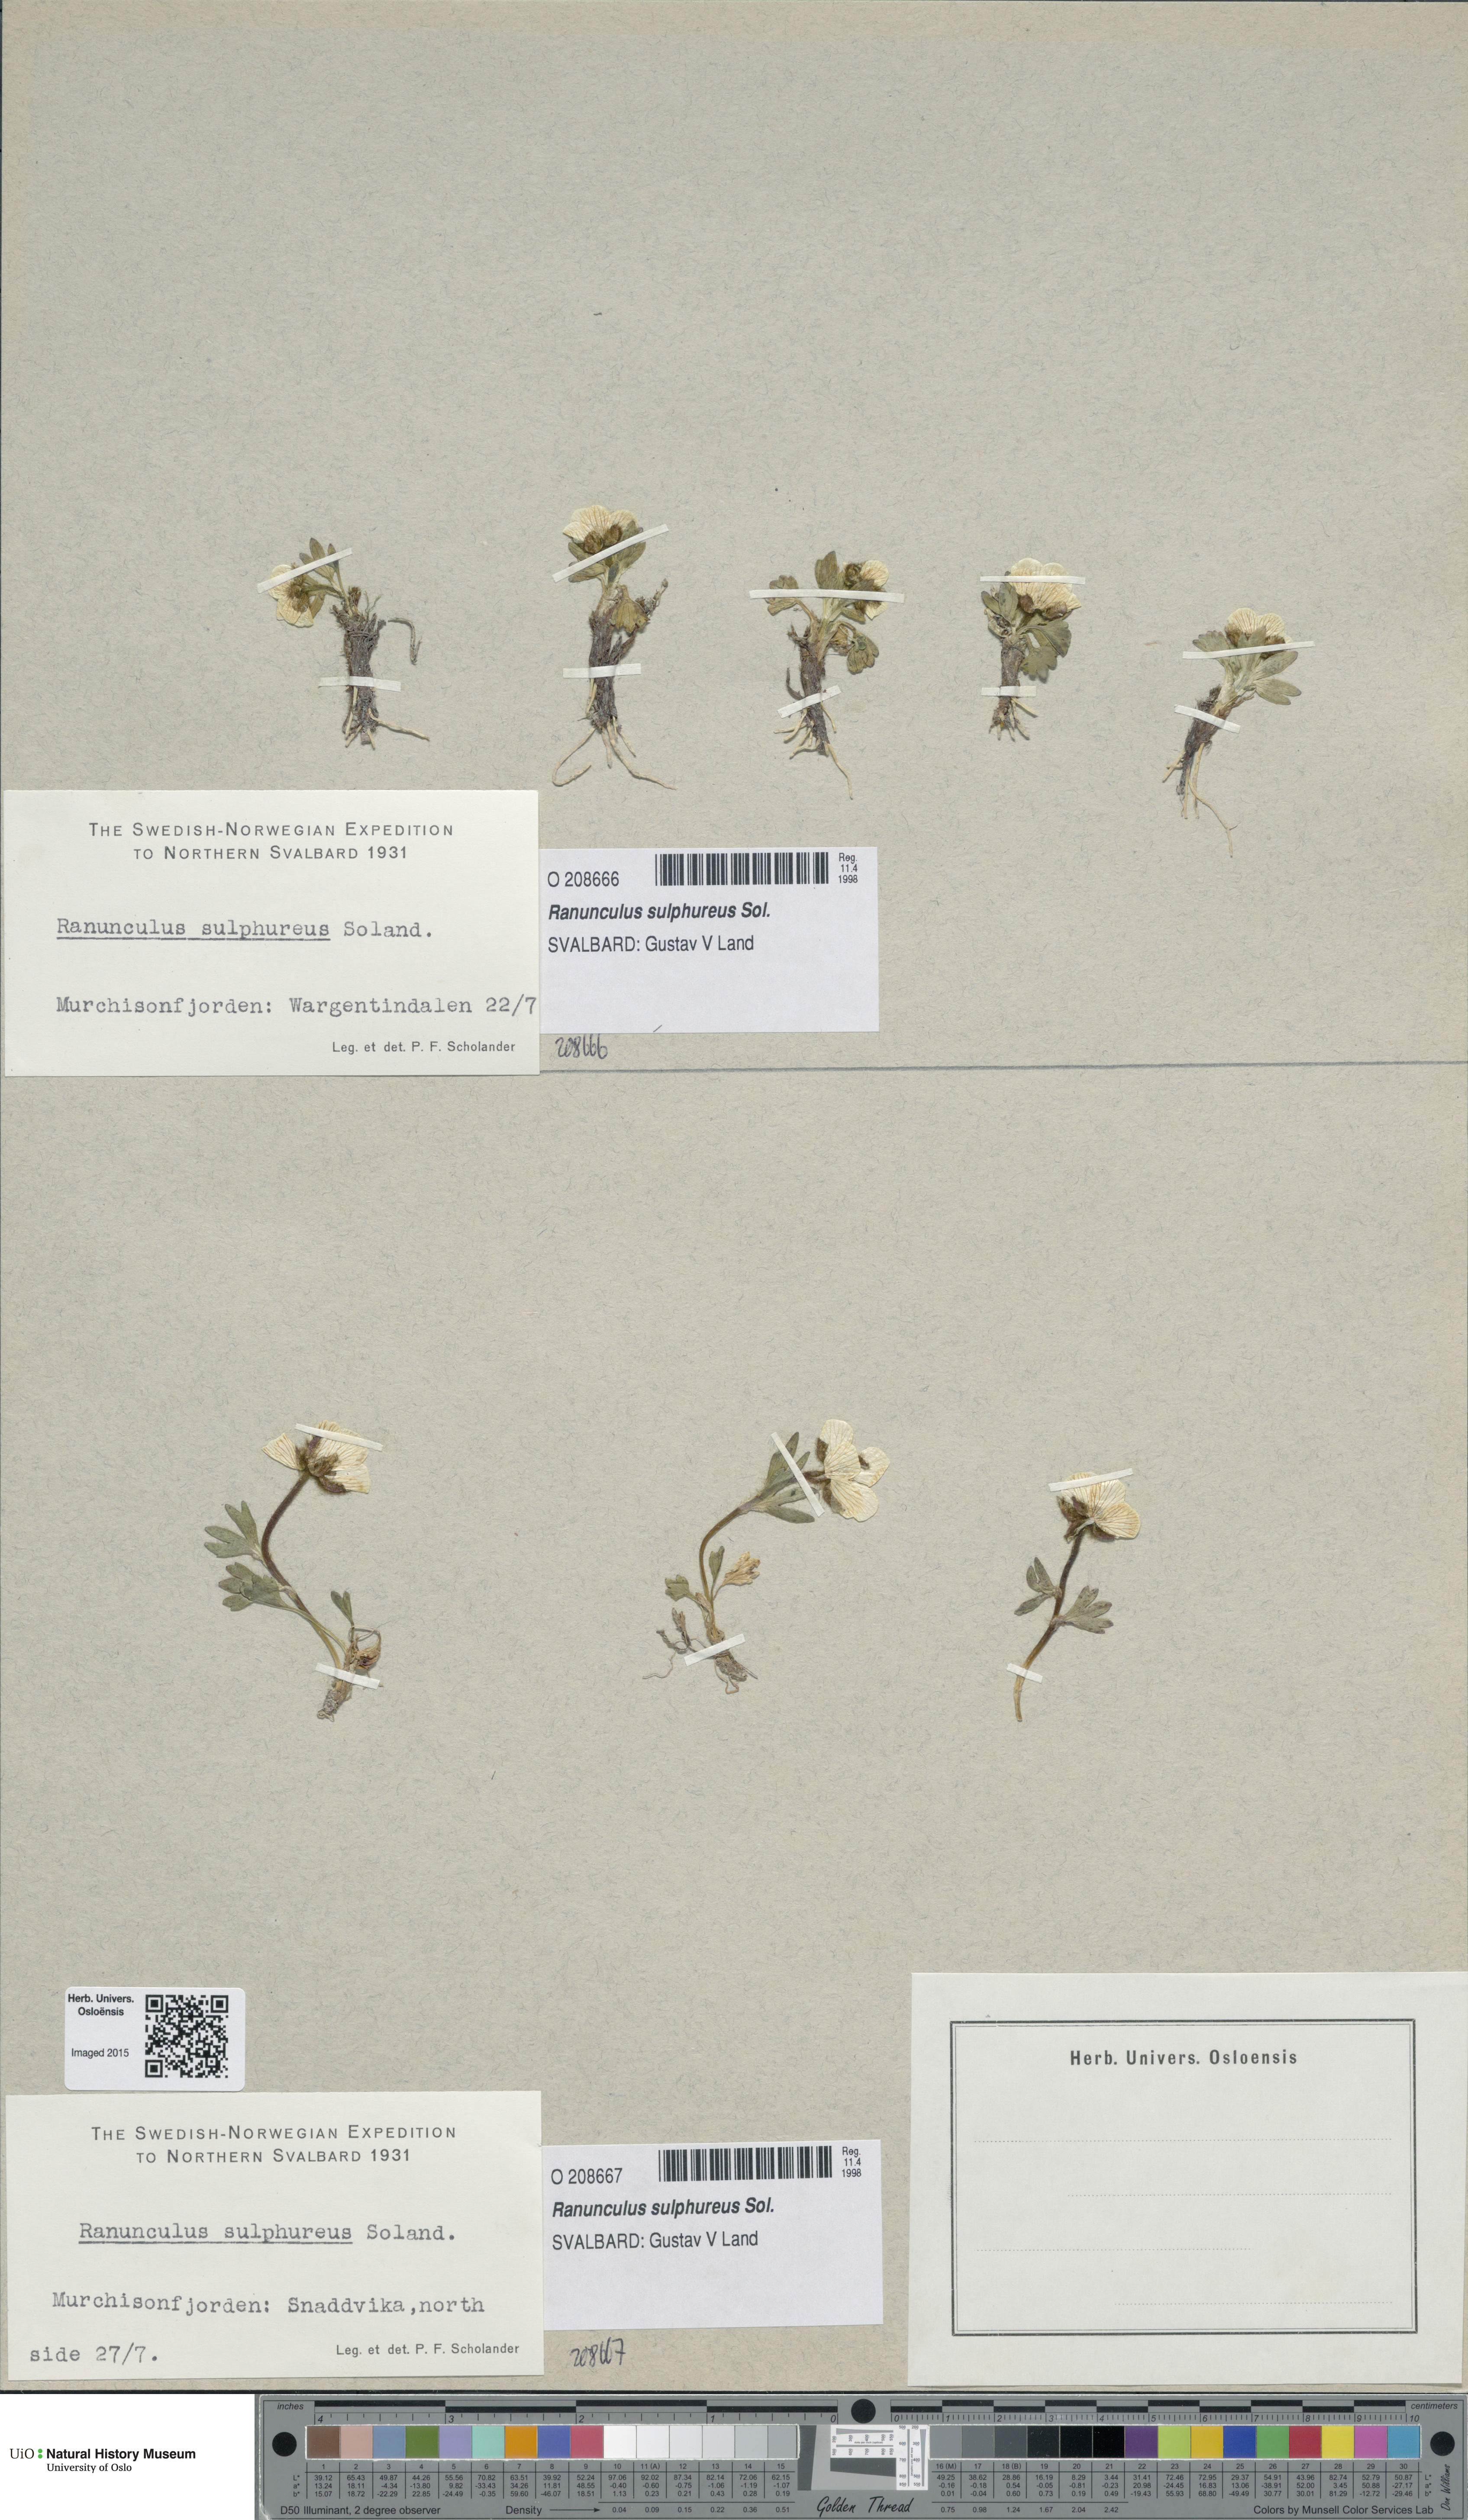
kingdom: Plantae
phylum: Tracheophyta
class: Magnoliopsida
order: Ranunculales
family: Ranunculaceae
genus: Ranunculus
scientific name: Ranunculus sulphureus
